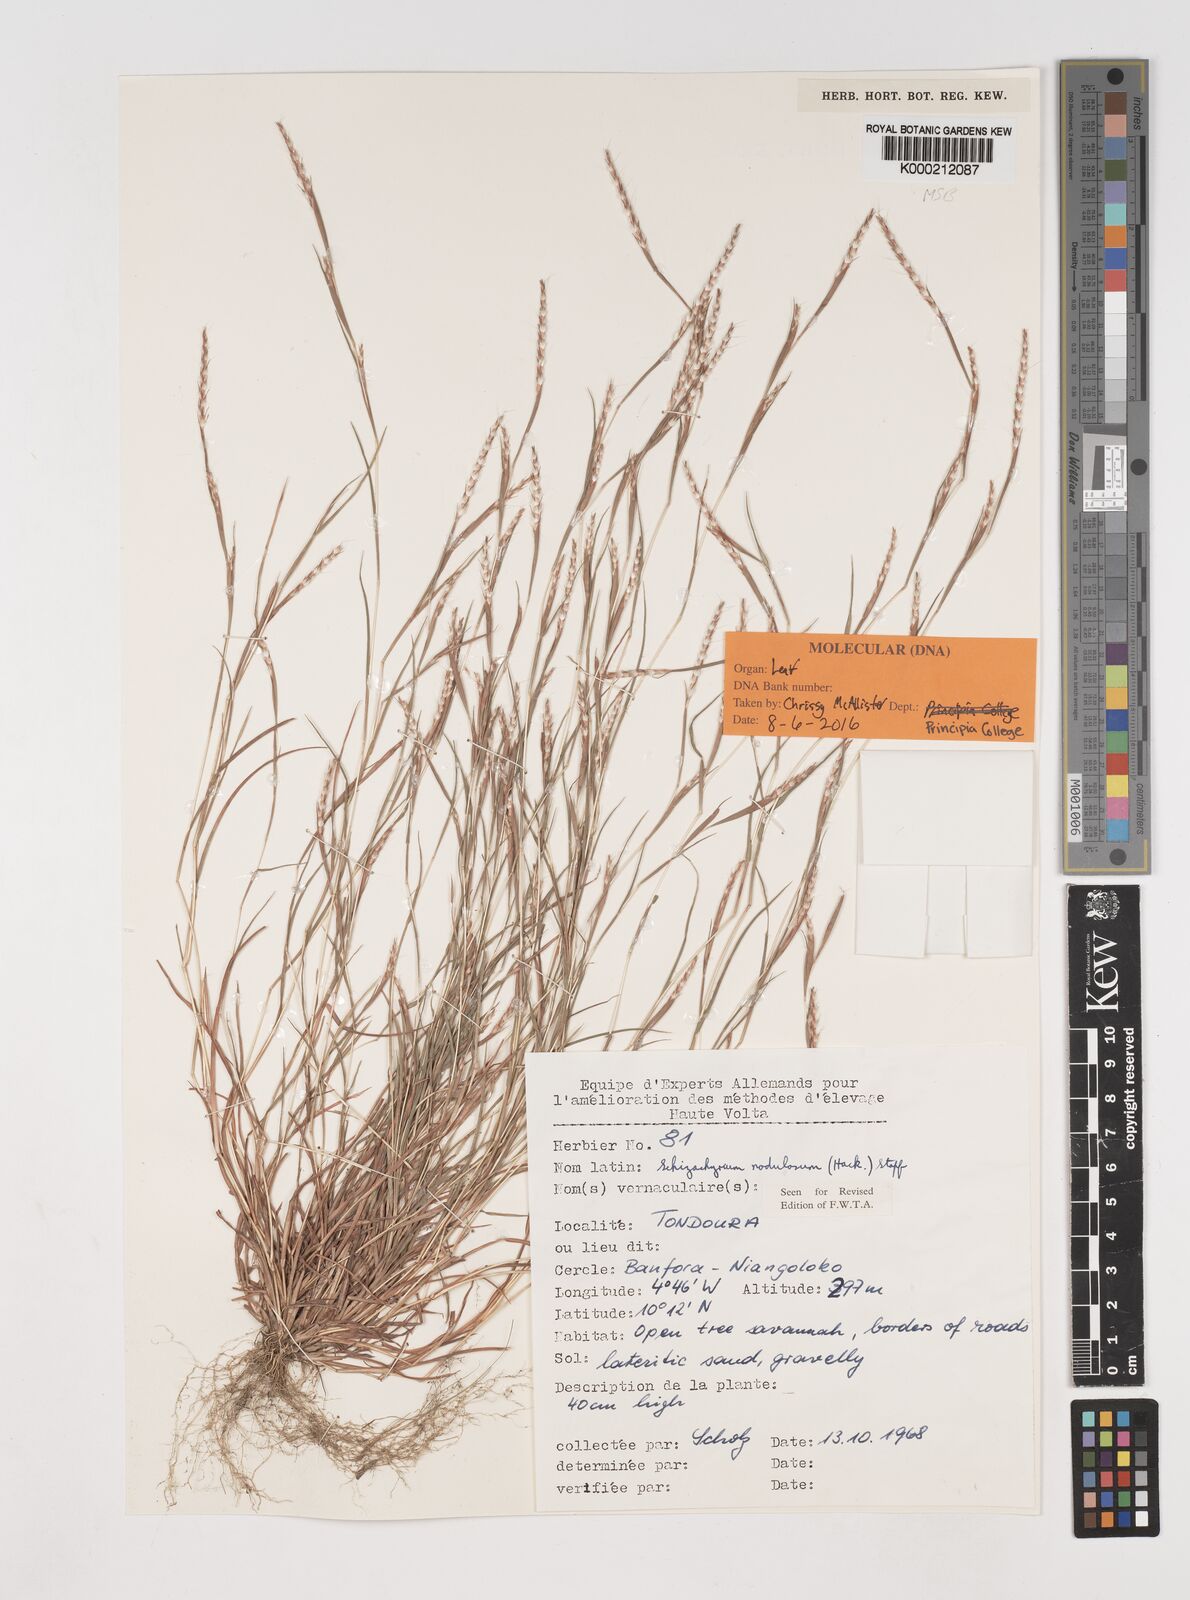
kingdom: Plantae
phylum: Tracheophyta
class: Liliopsida
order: Poales
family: Poaceae
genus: Schizachyrium
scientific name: Schizachyrium nodulosum
